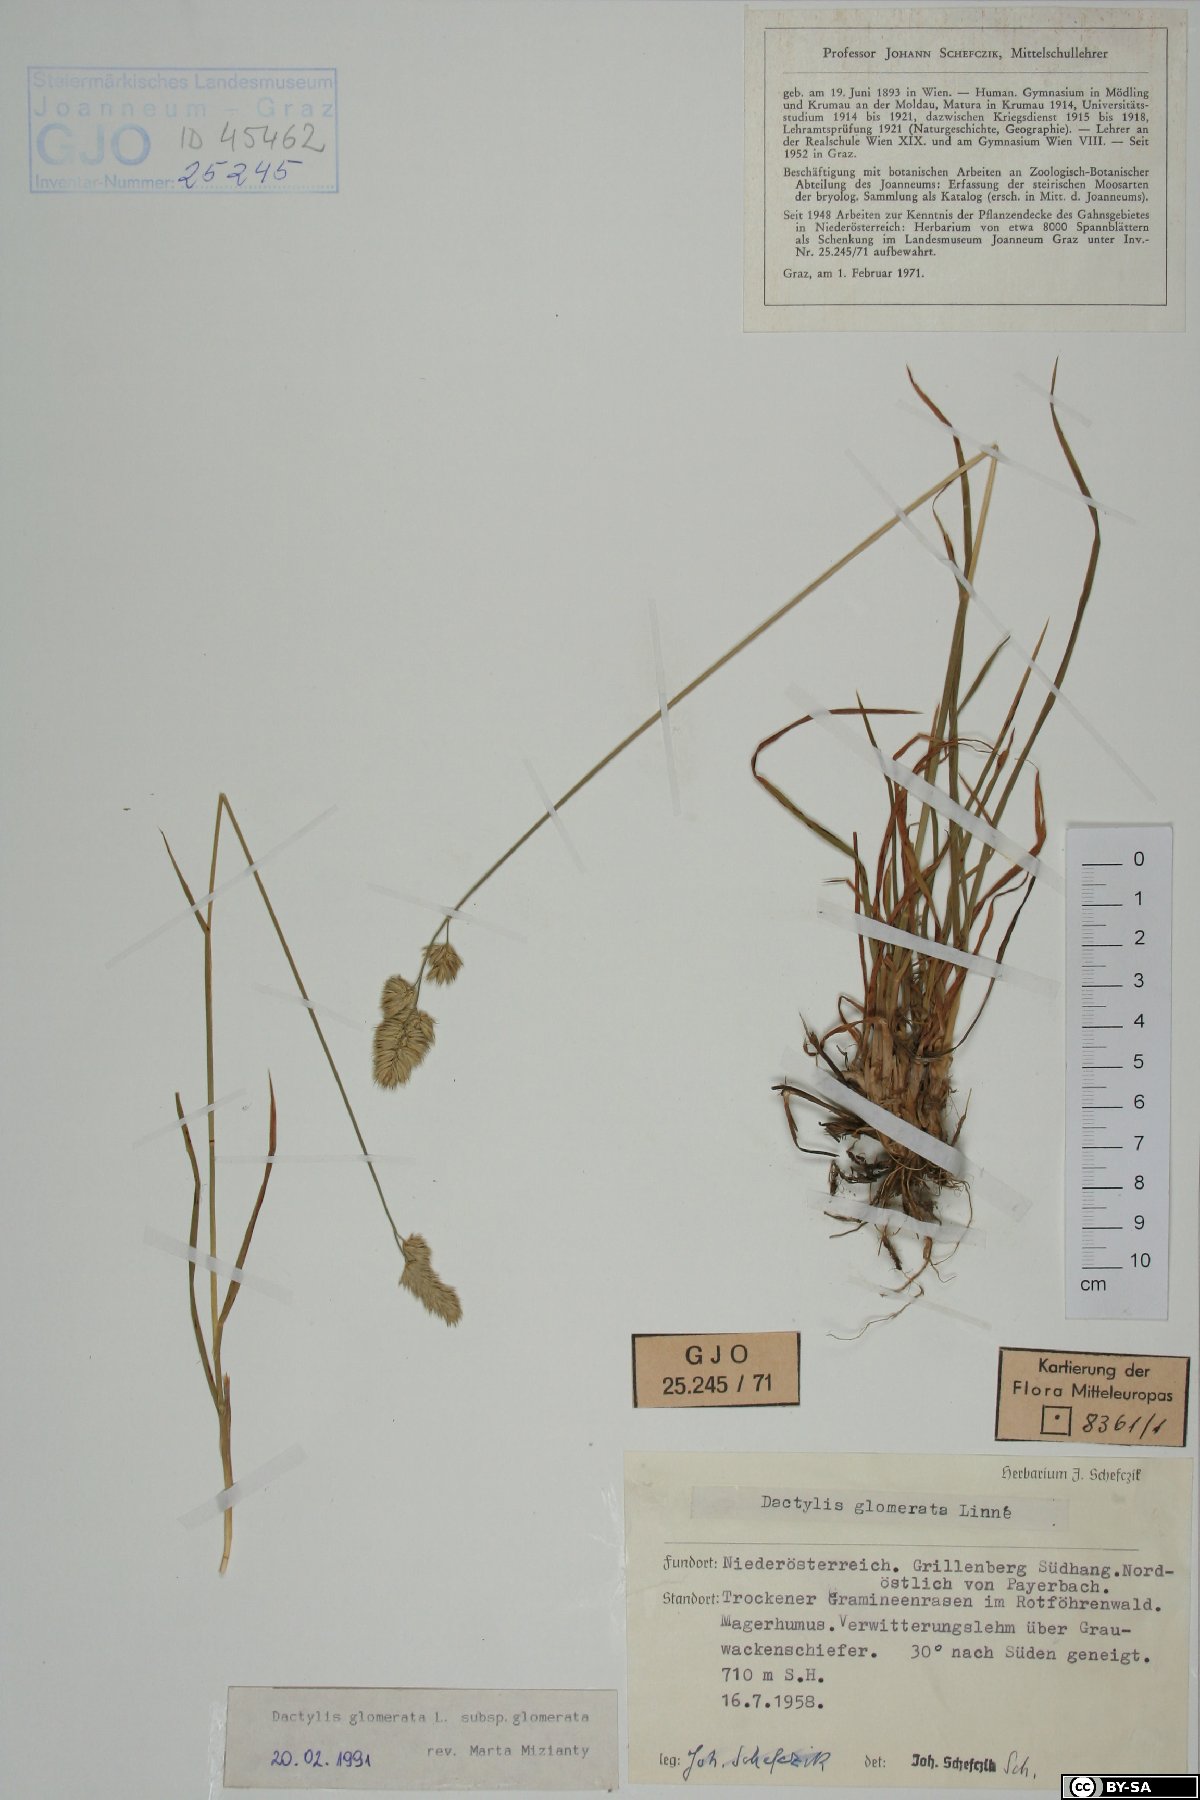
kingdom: Plantae
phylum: Tracheophyta
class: Liliopsida
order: Poales
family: Poaceae
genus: Dactylis
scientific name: Dactylis glomerata
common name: Orchardgrass
